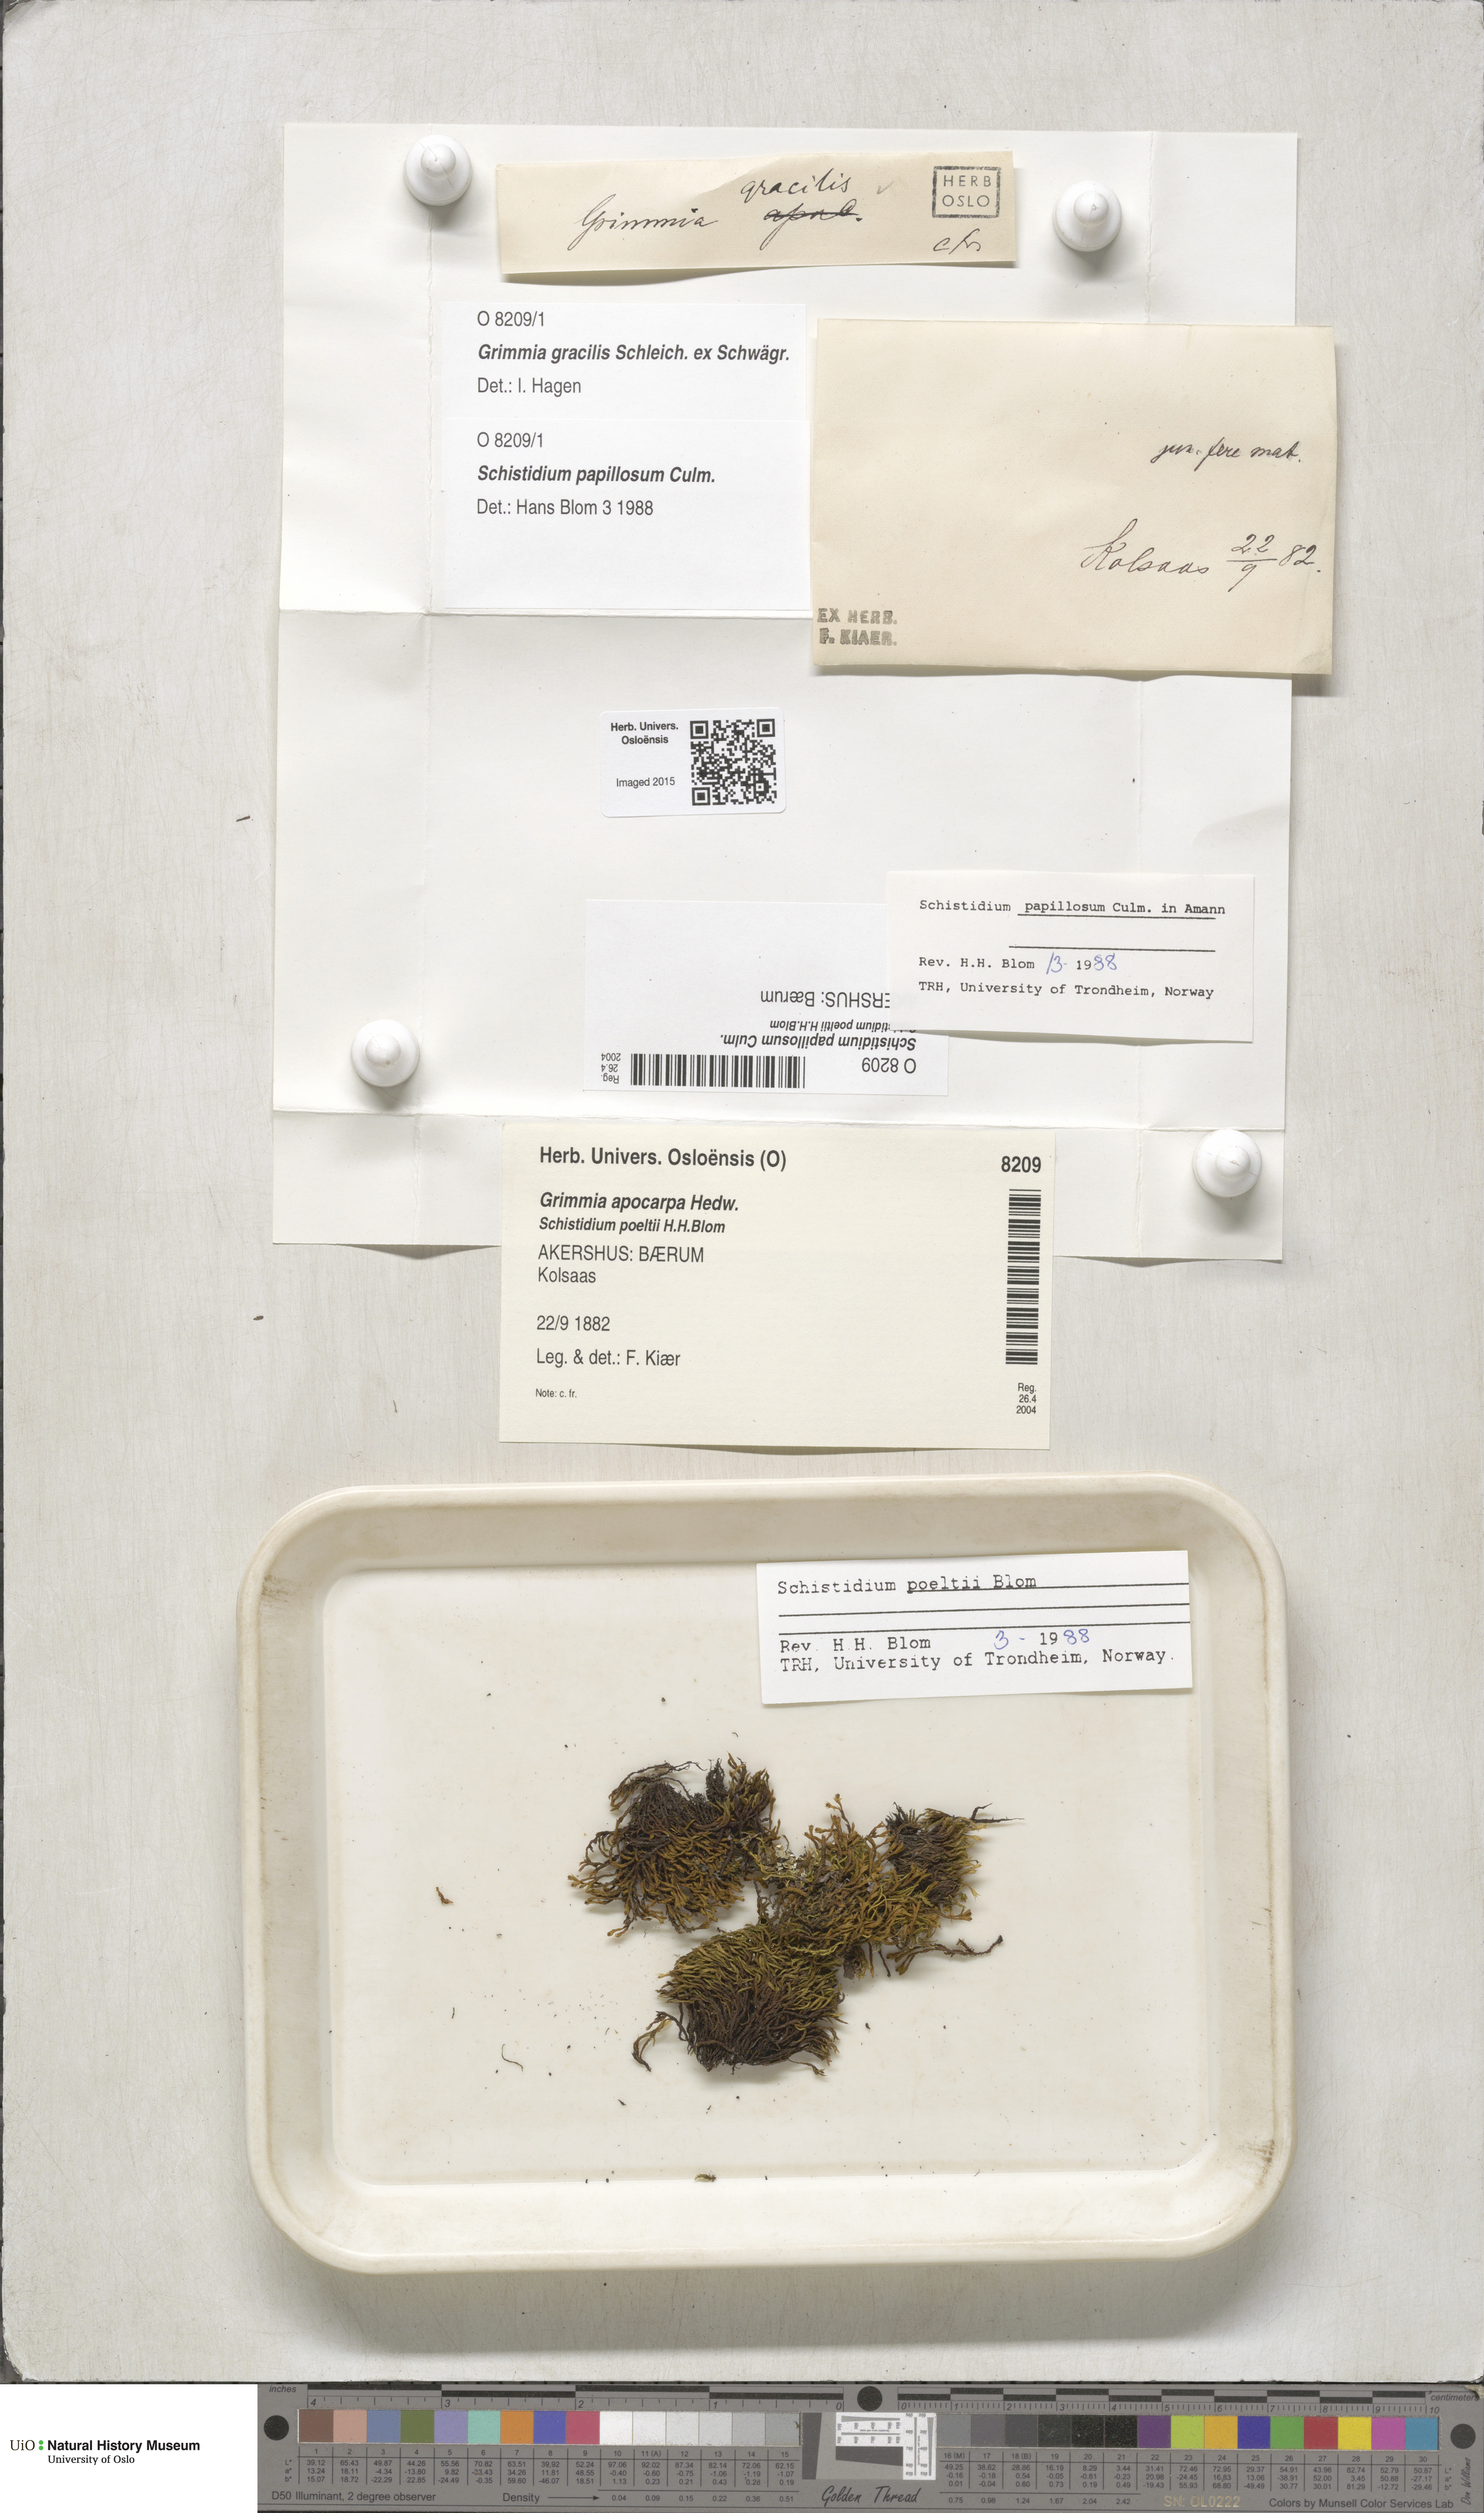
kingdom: Plantae
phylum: Bryophyta
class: Bryopsida
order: Grimmiales
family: Grimmiaceae
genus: Schistidium
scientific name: Schistidium papillosum
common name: Papillose bloom moss
